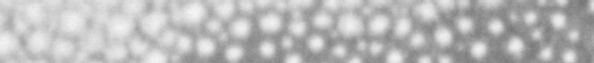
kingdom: Animalia
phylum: Chordata
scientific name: Chordata
